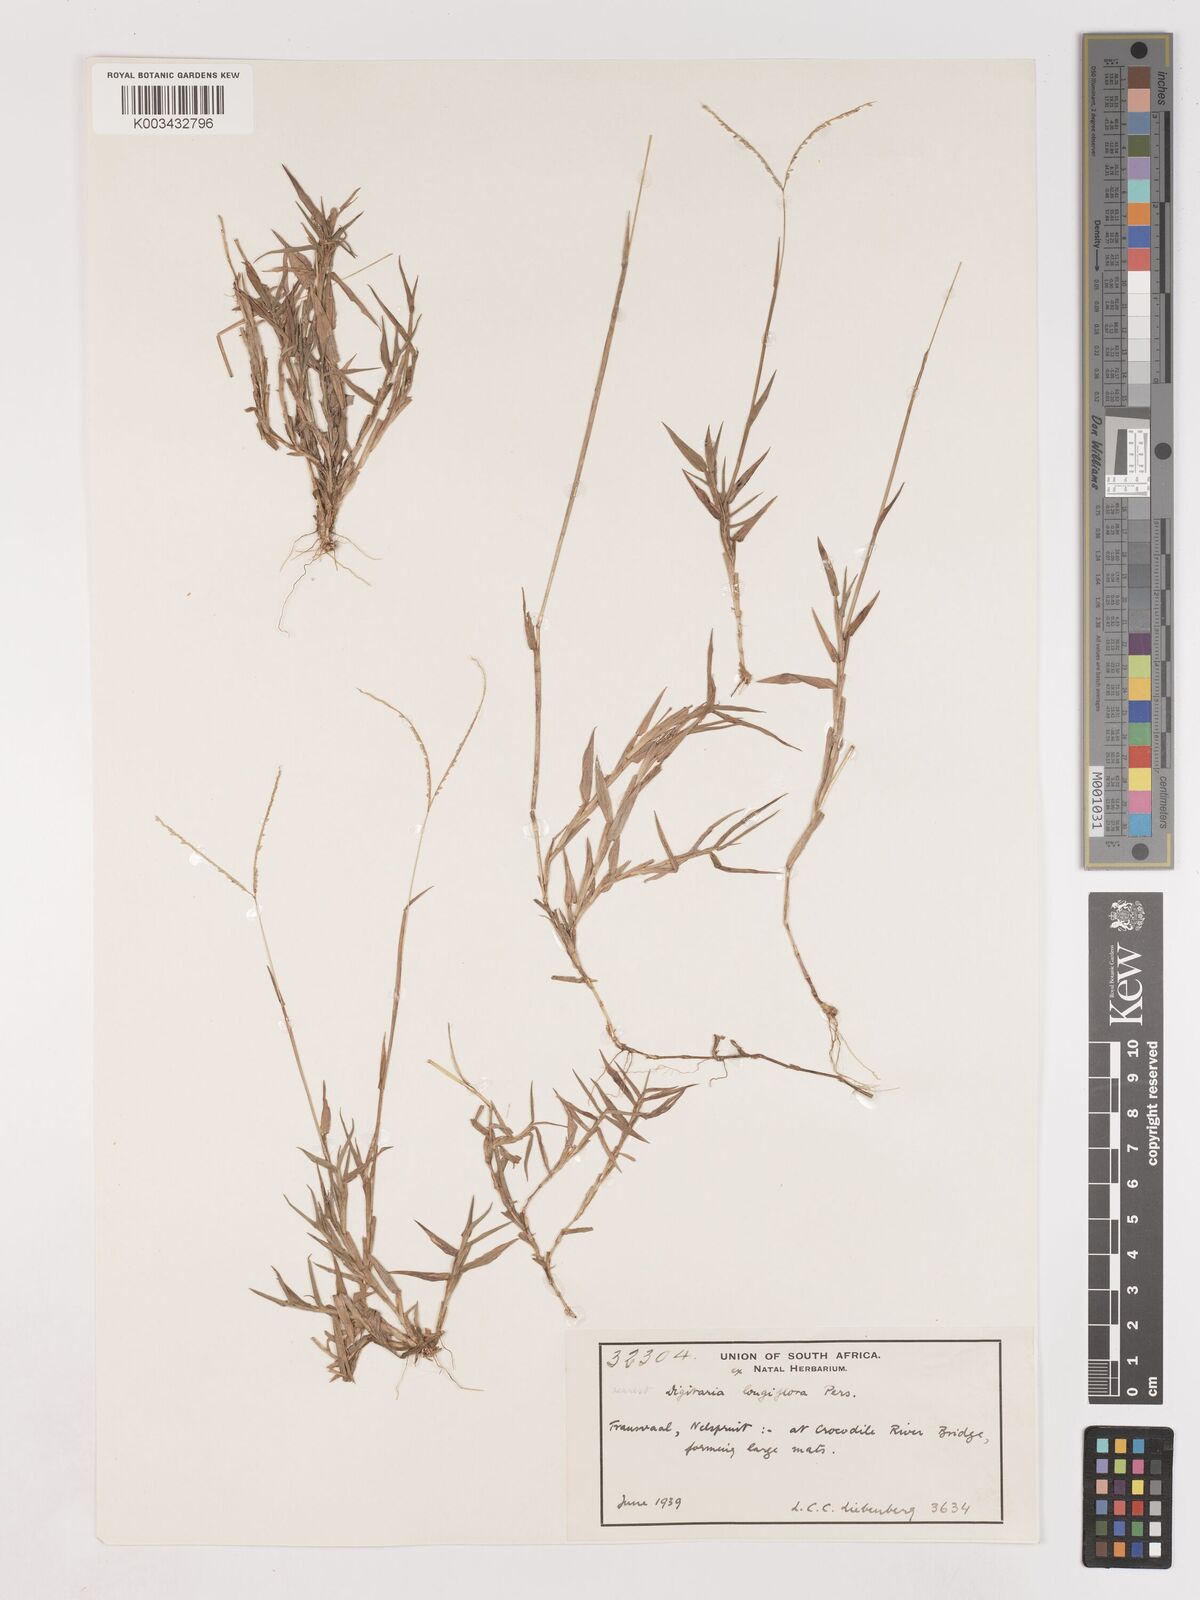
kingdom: Plantae
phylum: Tracheophyta
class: Liliopsida
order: Poales
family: Poaceae
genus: Digitaria
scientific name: Digitaria longiflora
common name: Wire crabgrass
